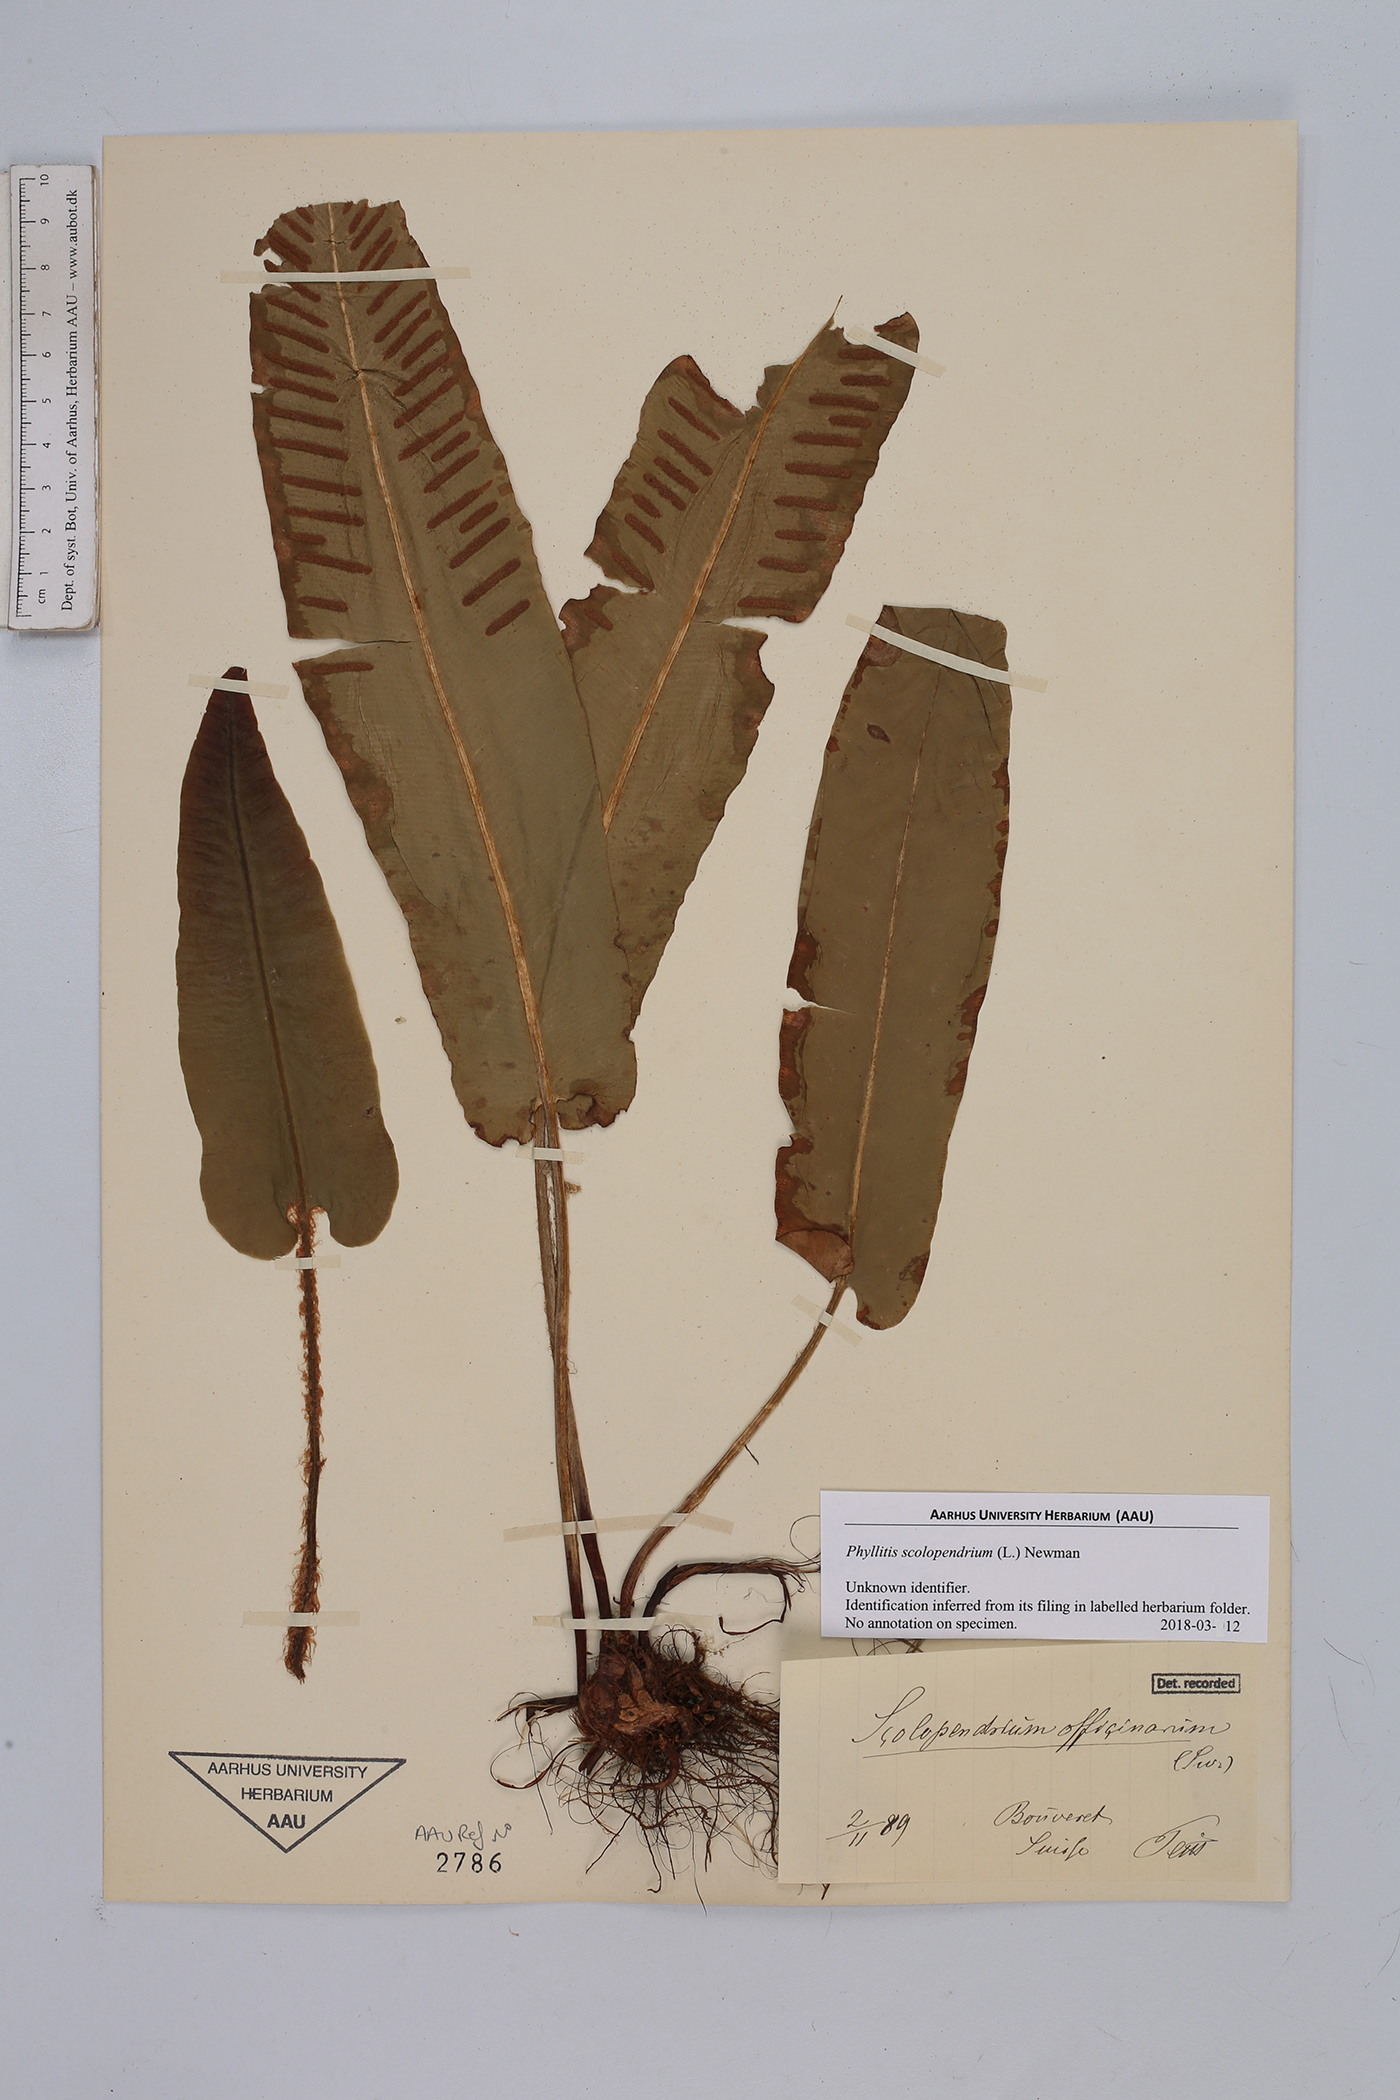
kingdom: Plantae
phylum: Tracheophyta
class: Polypodiopsida
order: Polypodiales
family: Aspleniaceae
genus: Asplenium
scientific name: Asplenium scolopendrium
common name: Hart's-tongue fern
